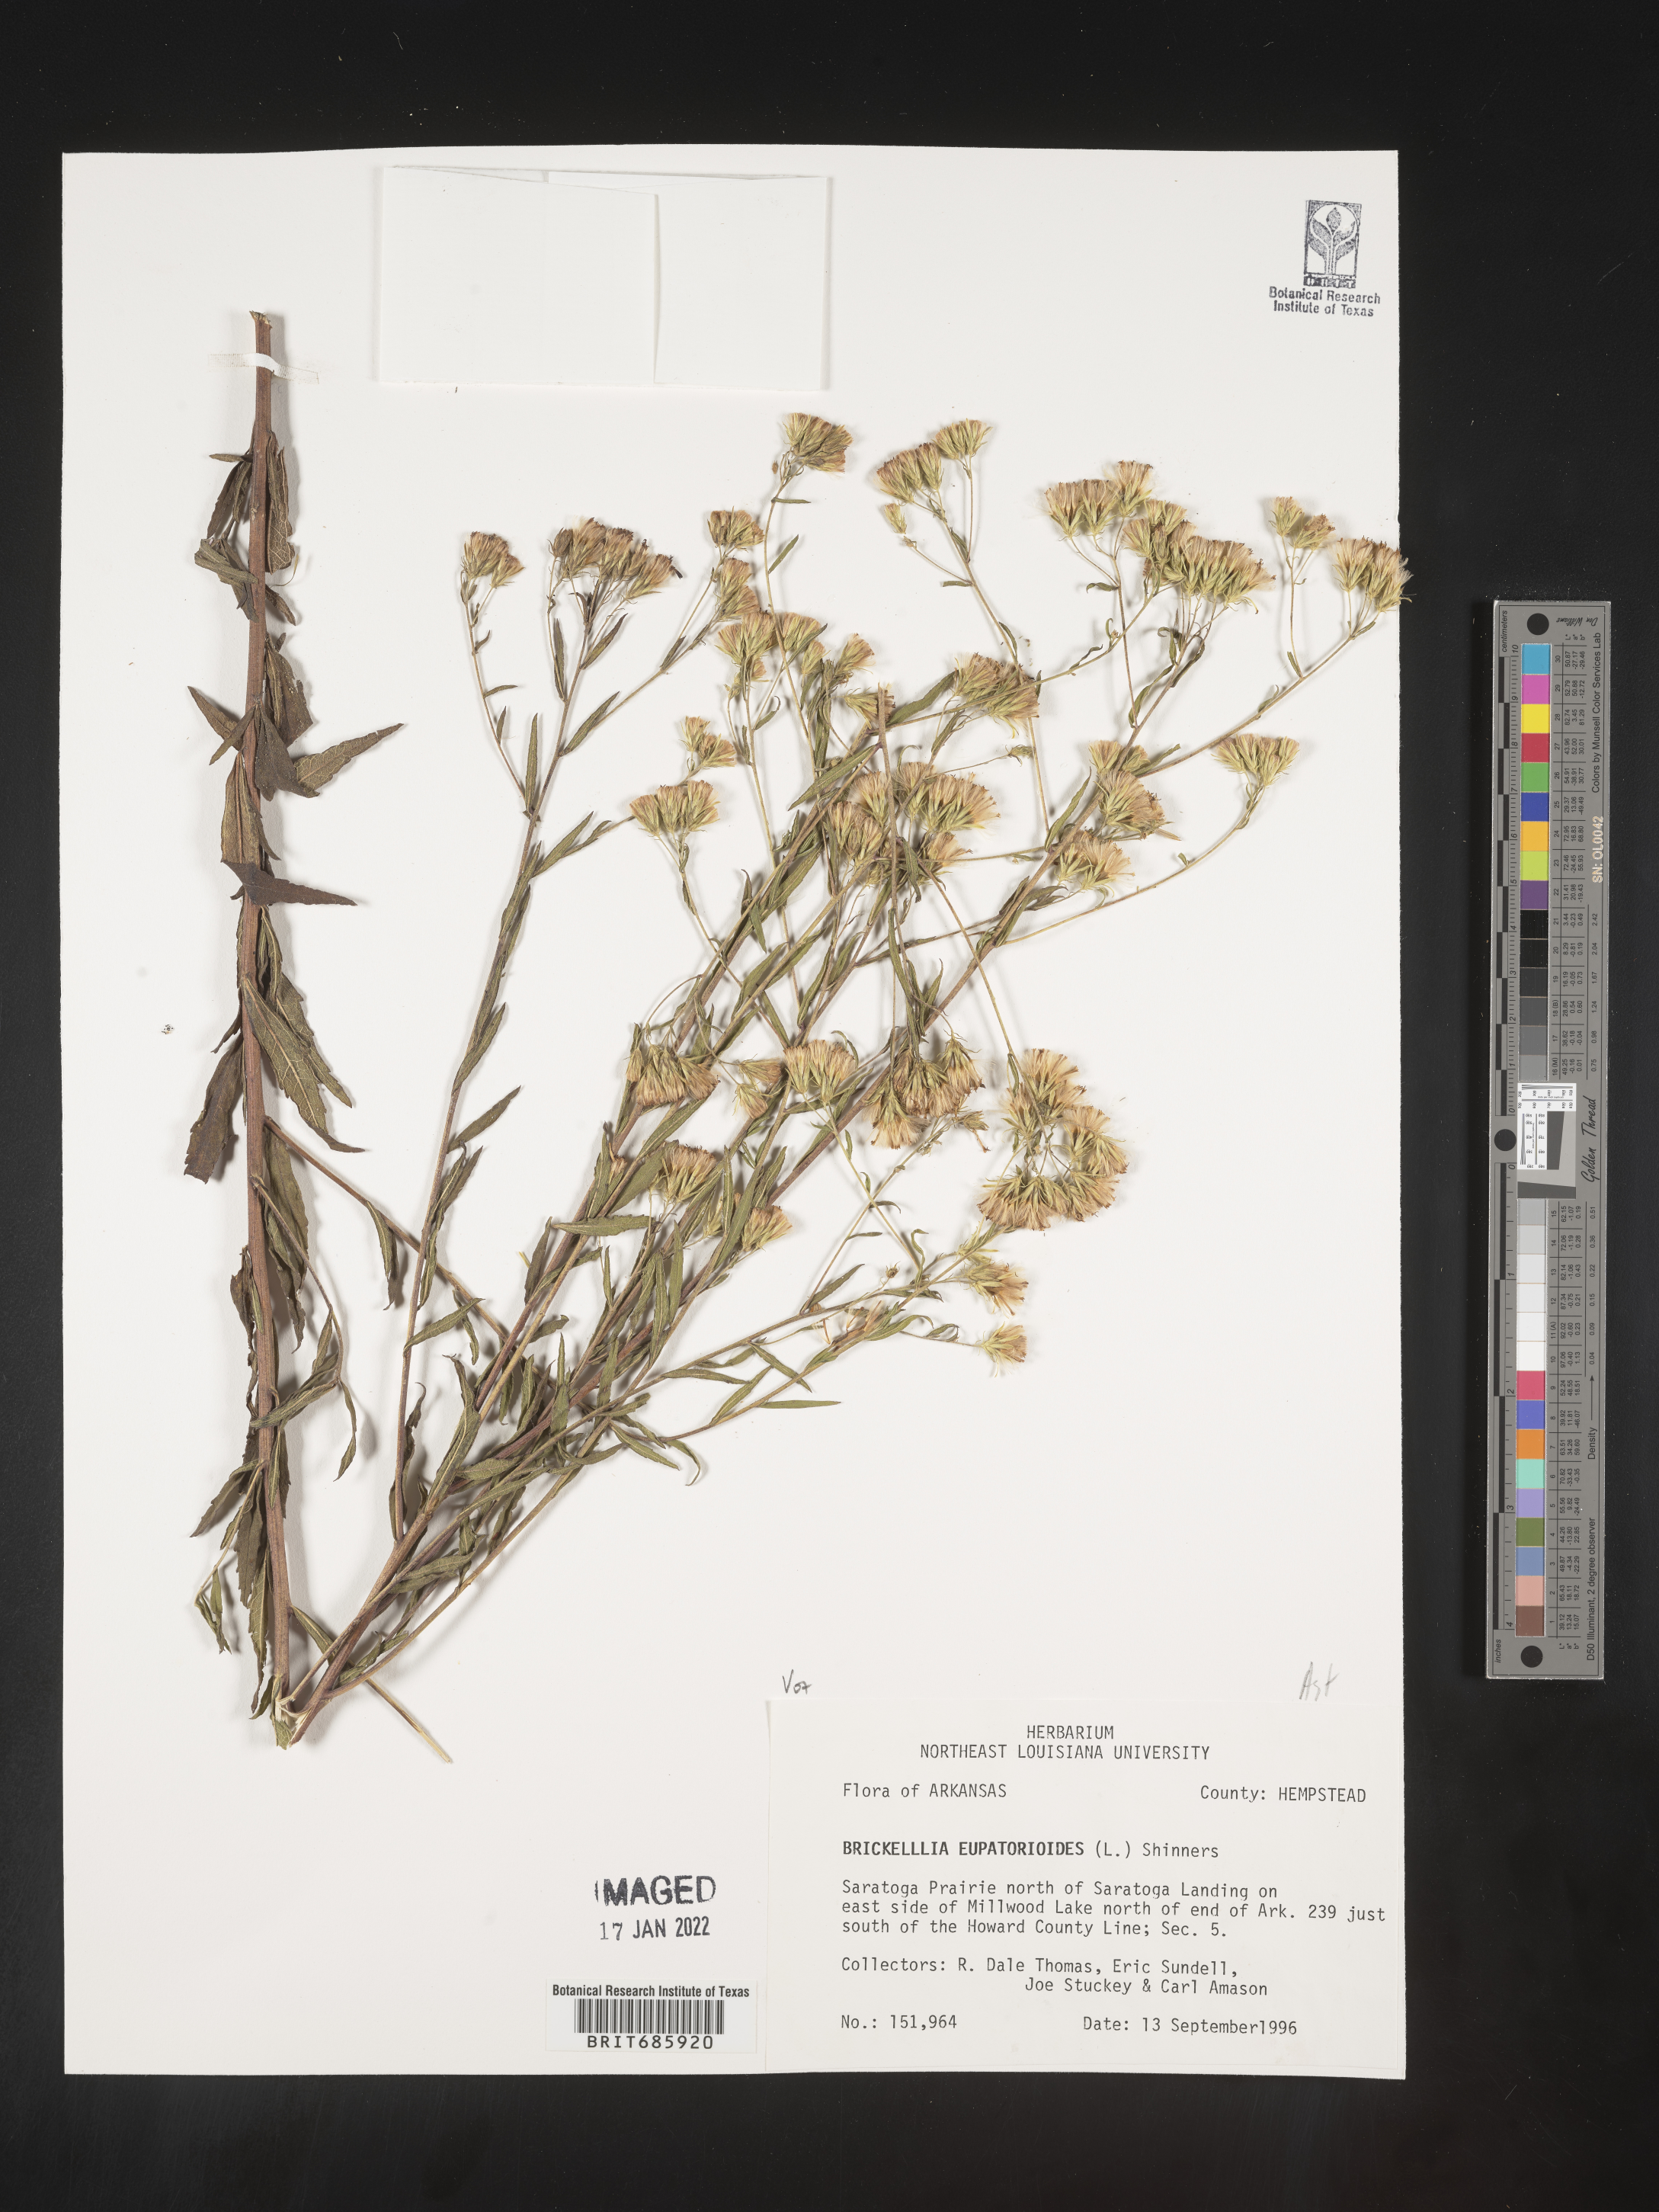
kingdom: Plantae
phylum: Tracheophyta
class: Magnoliopsida
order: Asterales
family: Asteraceae
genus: Brickellia
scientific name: Brickellia ozarkana
